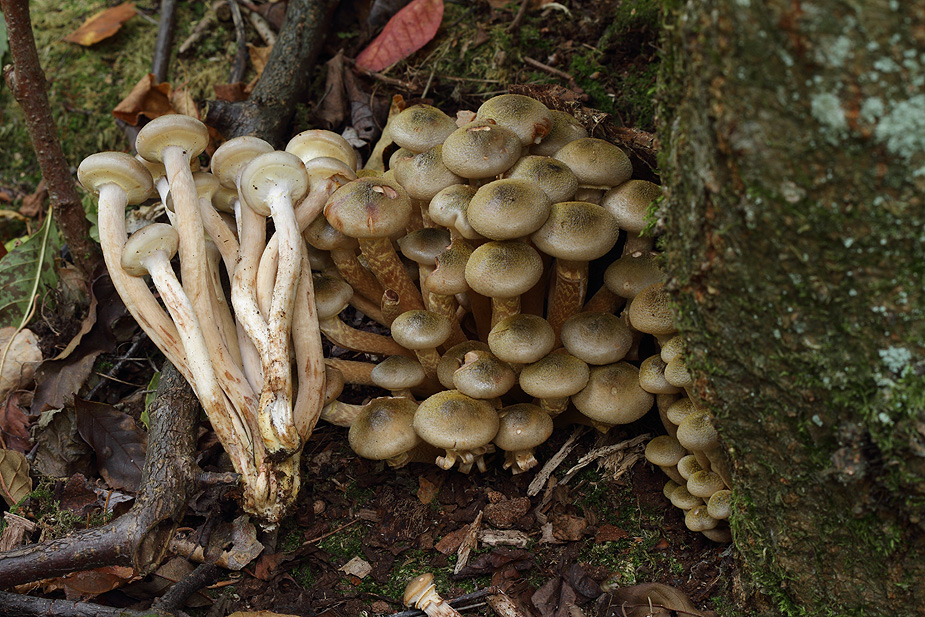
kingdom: Fungi
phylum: Basidiomycota
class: Agaricomycetes
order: Agaricales
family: Physalacriaceae
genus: Armillaria
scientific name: Armillaria mellea
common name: ægte honningsvamp
